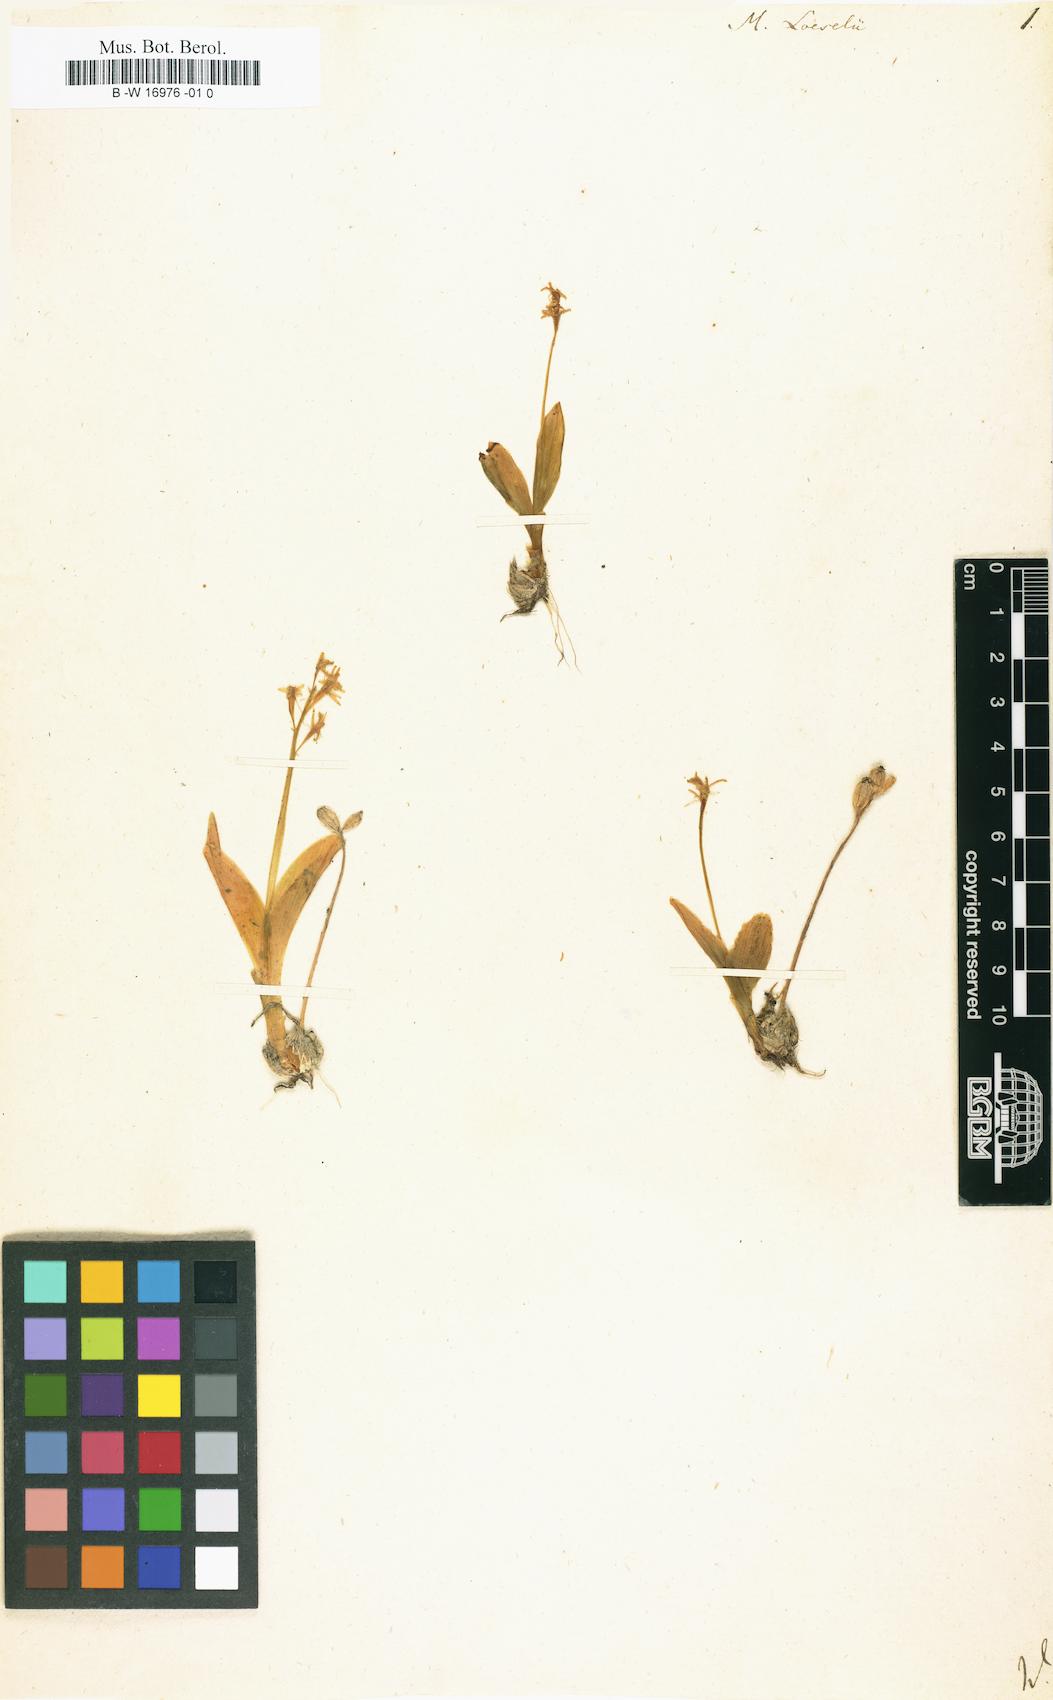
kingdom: Animalia
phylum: Arthropoda
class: Insecta
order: Coleoptera
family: Curculionidae
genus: Liparis
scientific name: Liparis loeselii
